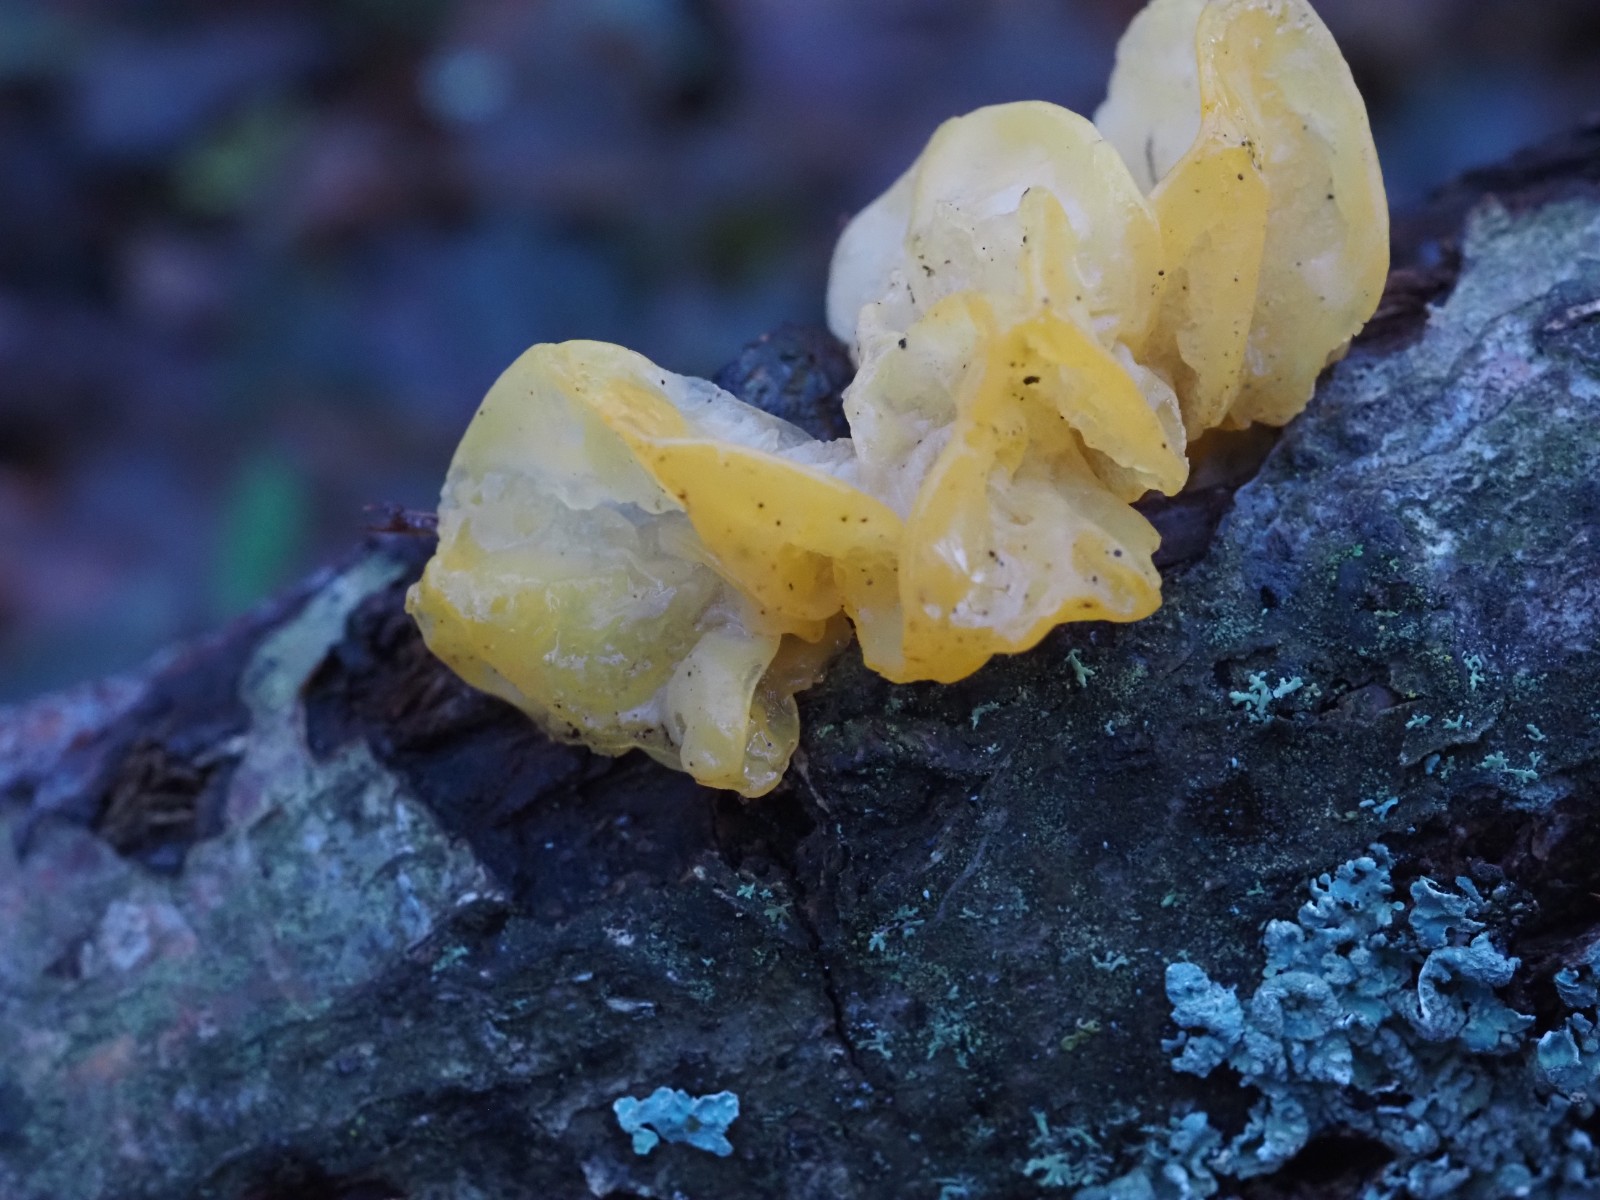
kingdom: Fungi
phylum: Basidiomycota
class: Tremellomycetes
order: Tremellales
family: Tremellaceae
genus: Tremella
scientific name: Tremella mesenterica
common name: gul bævresvamp
